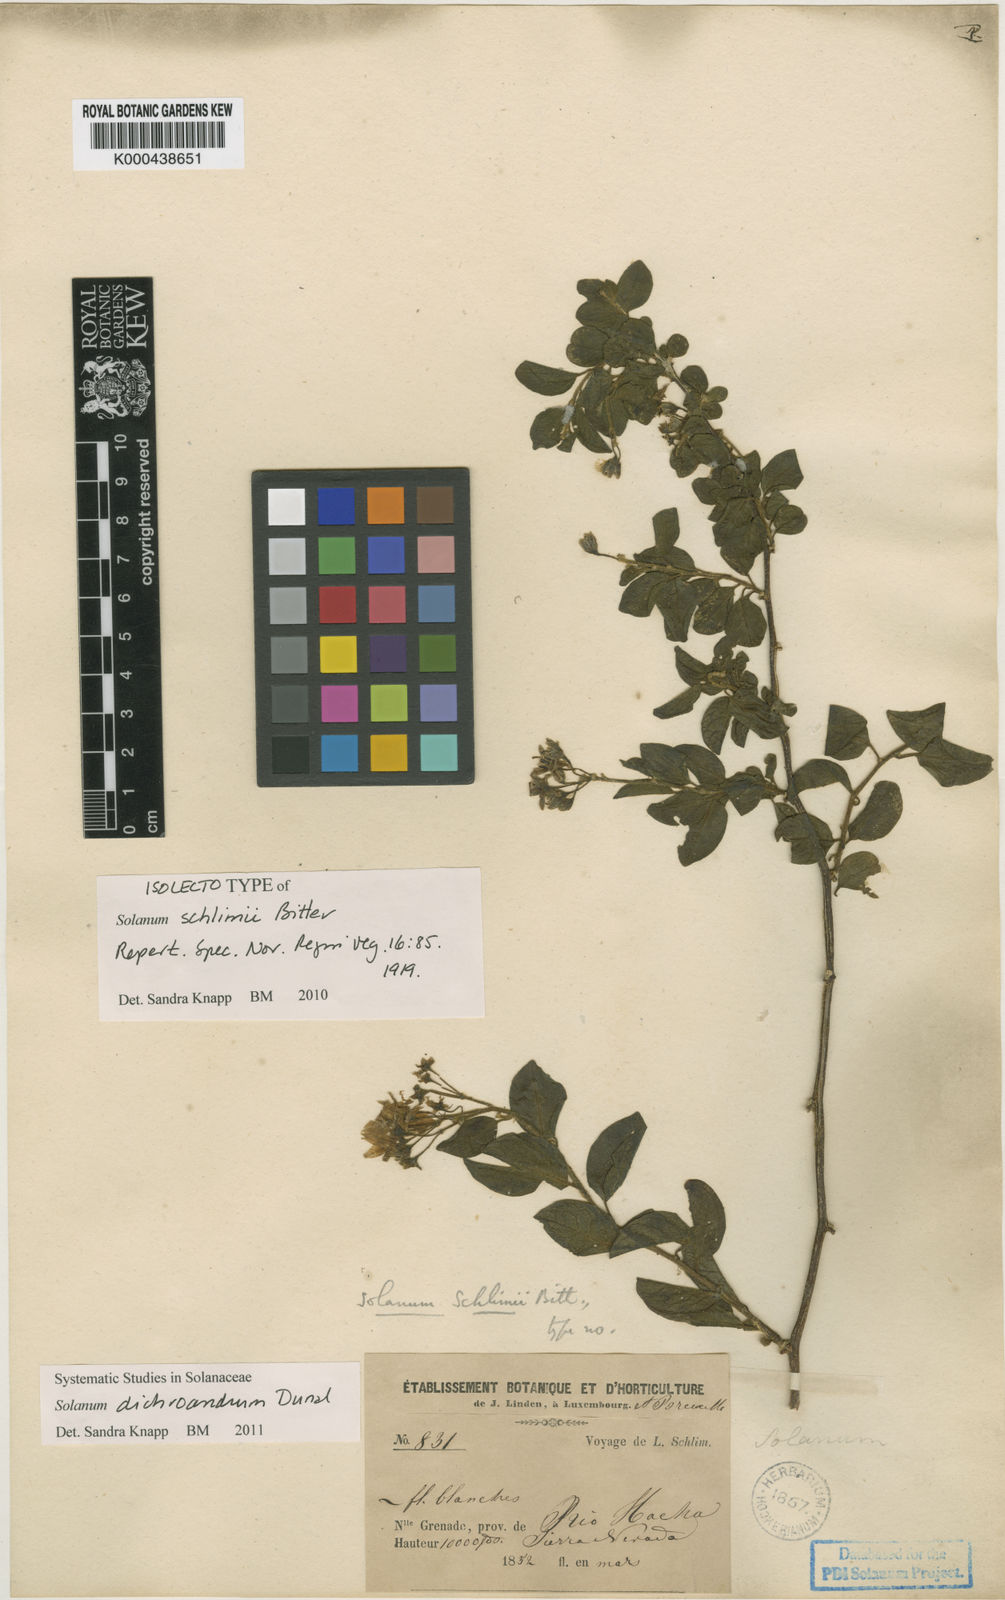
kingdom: Plantae
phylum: Tracheophyta
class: Magnoliopsida
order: Solanales
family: Solanaceae
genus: Solanum
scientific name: Solanum dichroandrum
